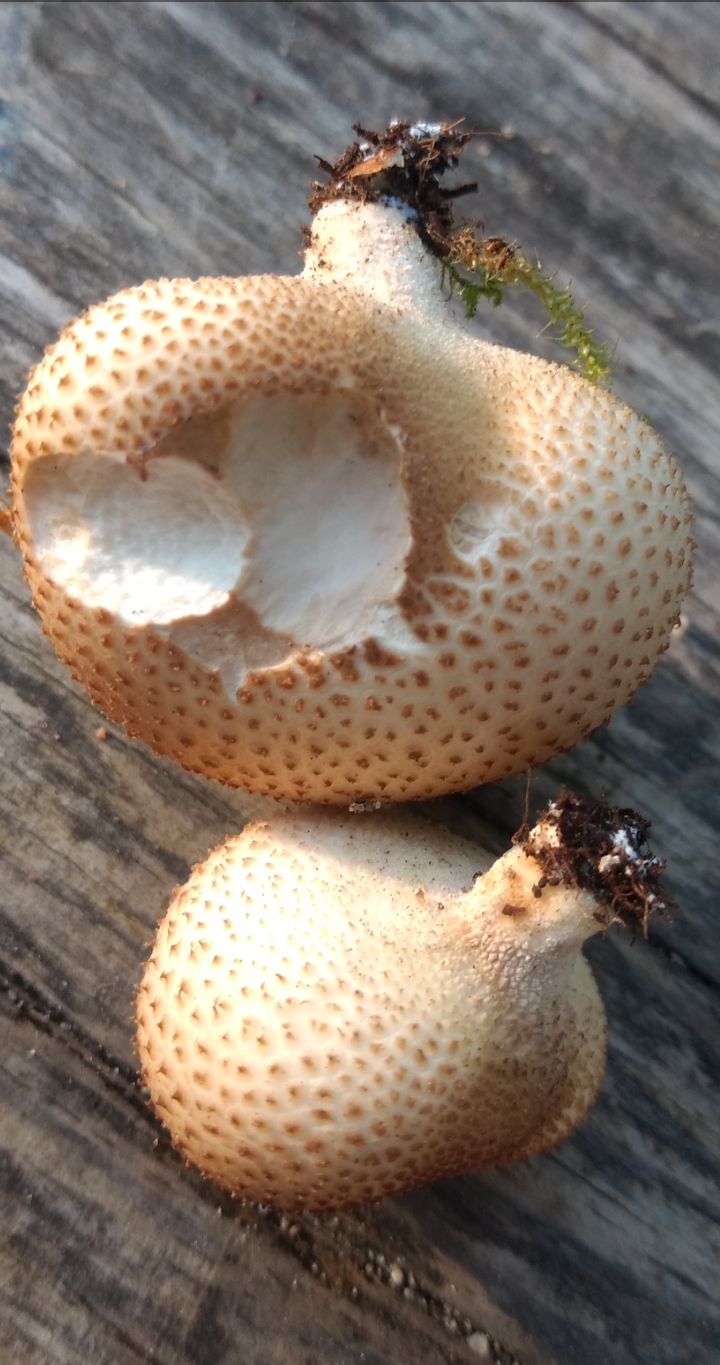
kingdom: Fungi
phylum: Basidiomycota
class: Agaricomycetes
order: Agaricales
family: Agaricaceae
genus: Lycoperdon
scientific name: Lycoperdon
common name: støvbold
